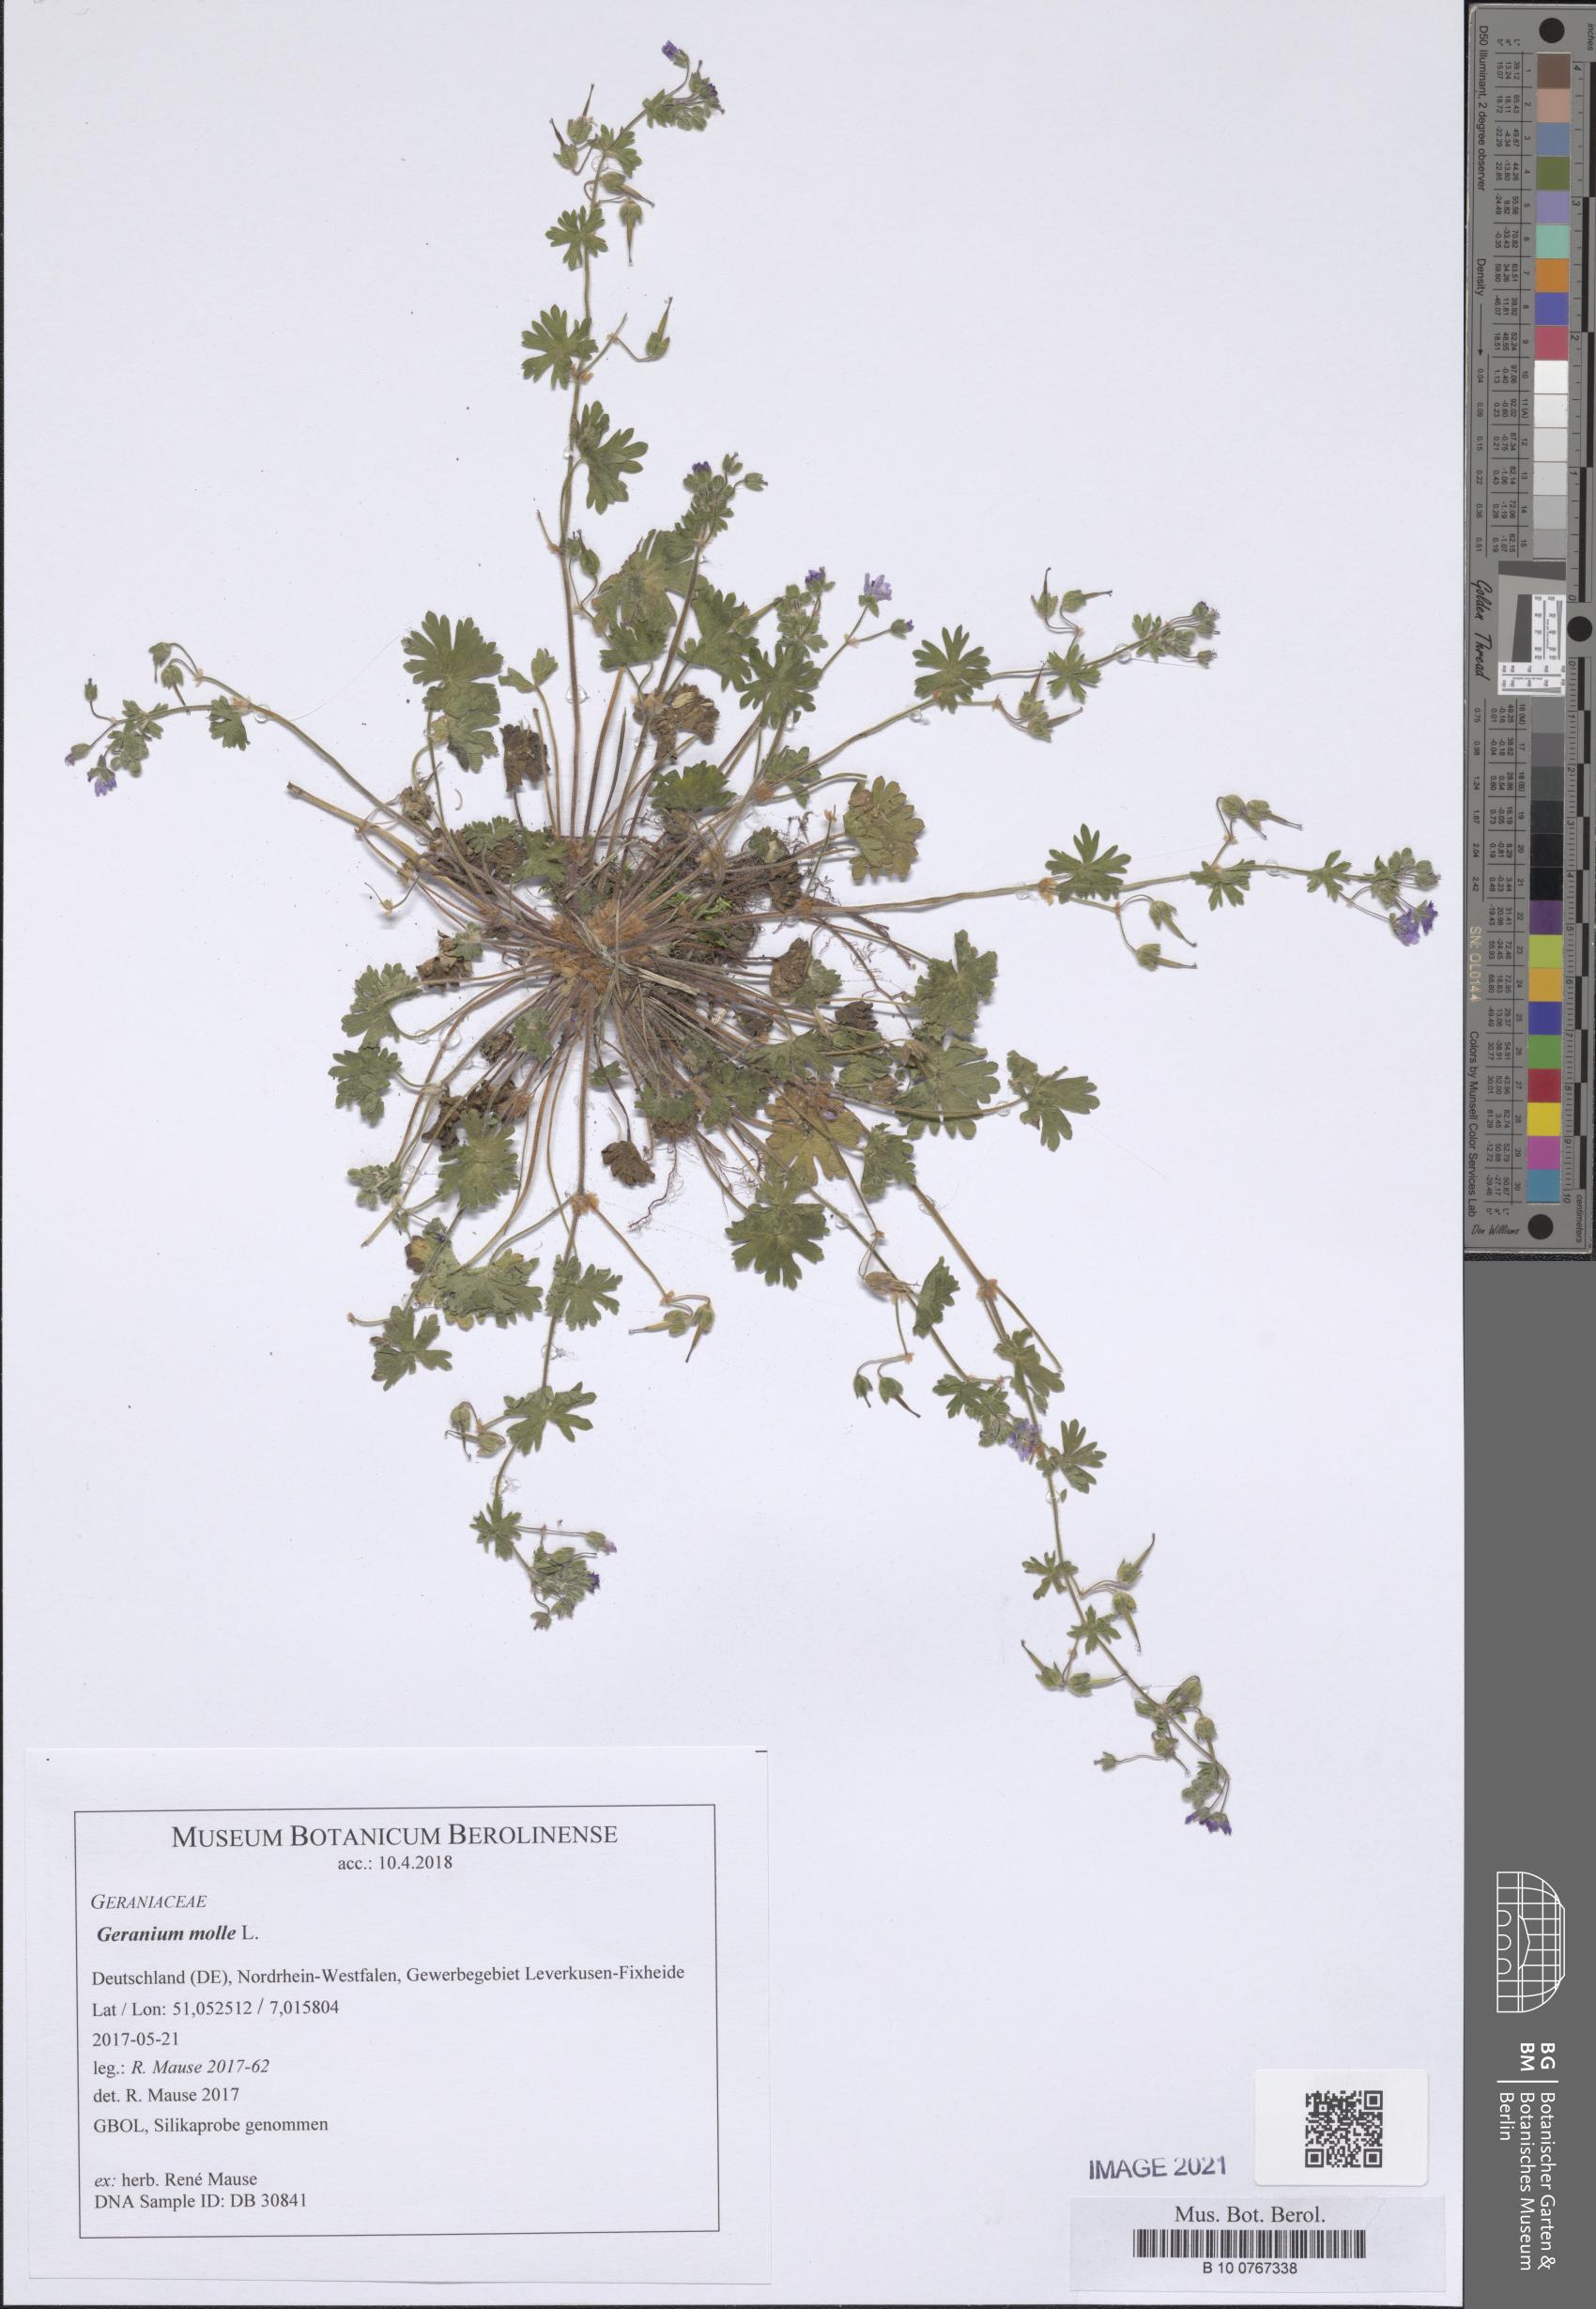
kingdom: Plantae
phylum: Tracheophyta
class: Magnoliopsida
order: Geraniales
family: Geraniaceae
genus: Geranium
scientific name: Geranium molle
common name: Dove's-foot crane's-bill
